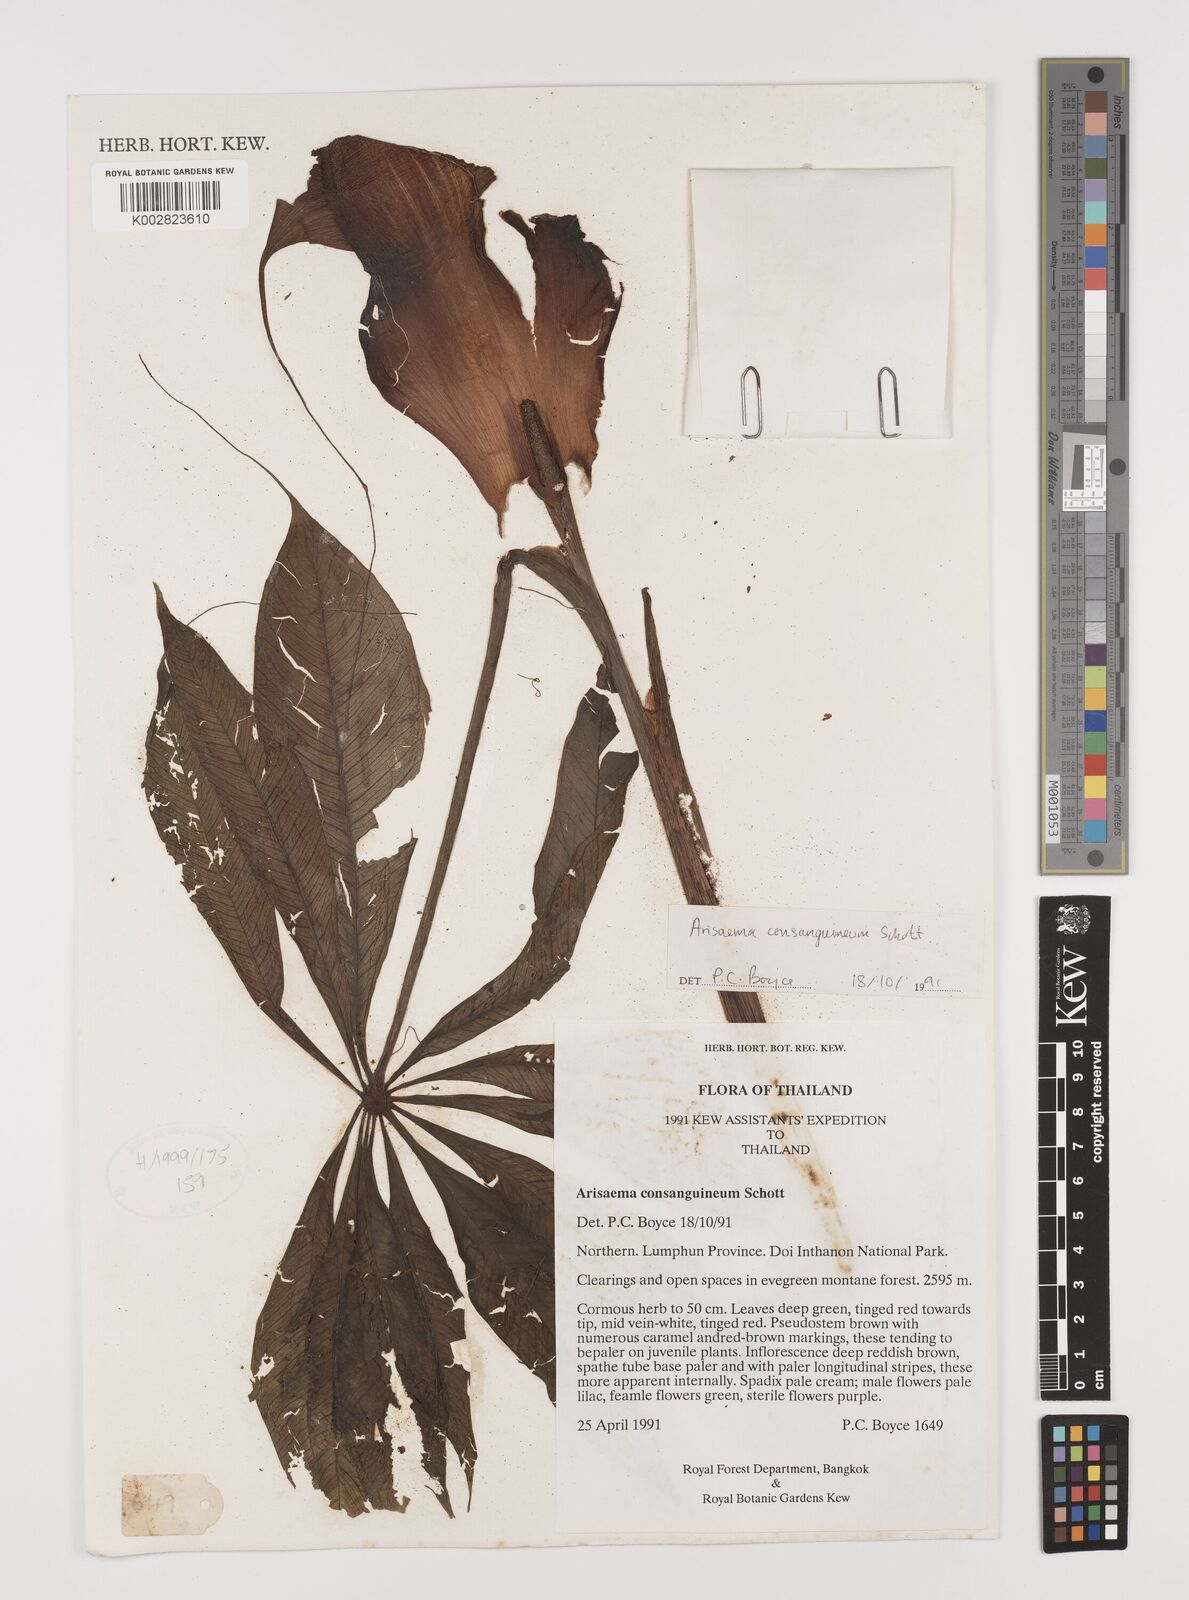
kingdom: Plantae
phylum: Tracheophyta
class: Liliopsida
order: Alismatales
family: Araceae
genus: Arisaema
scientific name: Arisaema consanguineum
